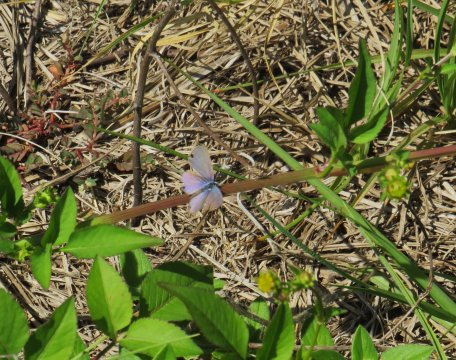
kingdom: Animalia
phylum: Arthropoda
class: Insecta
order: Lepidoptera
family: Lycaenidae
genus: Leptotes
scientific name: Leptotes cassius
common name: Cassius Blue
